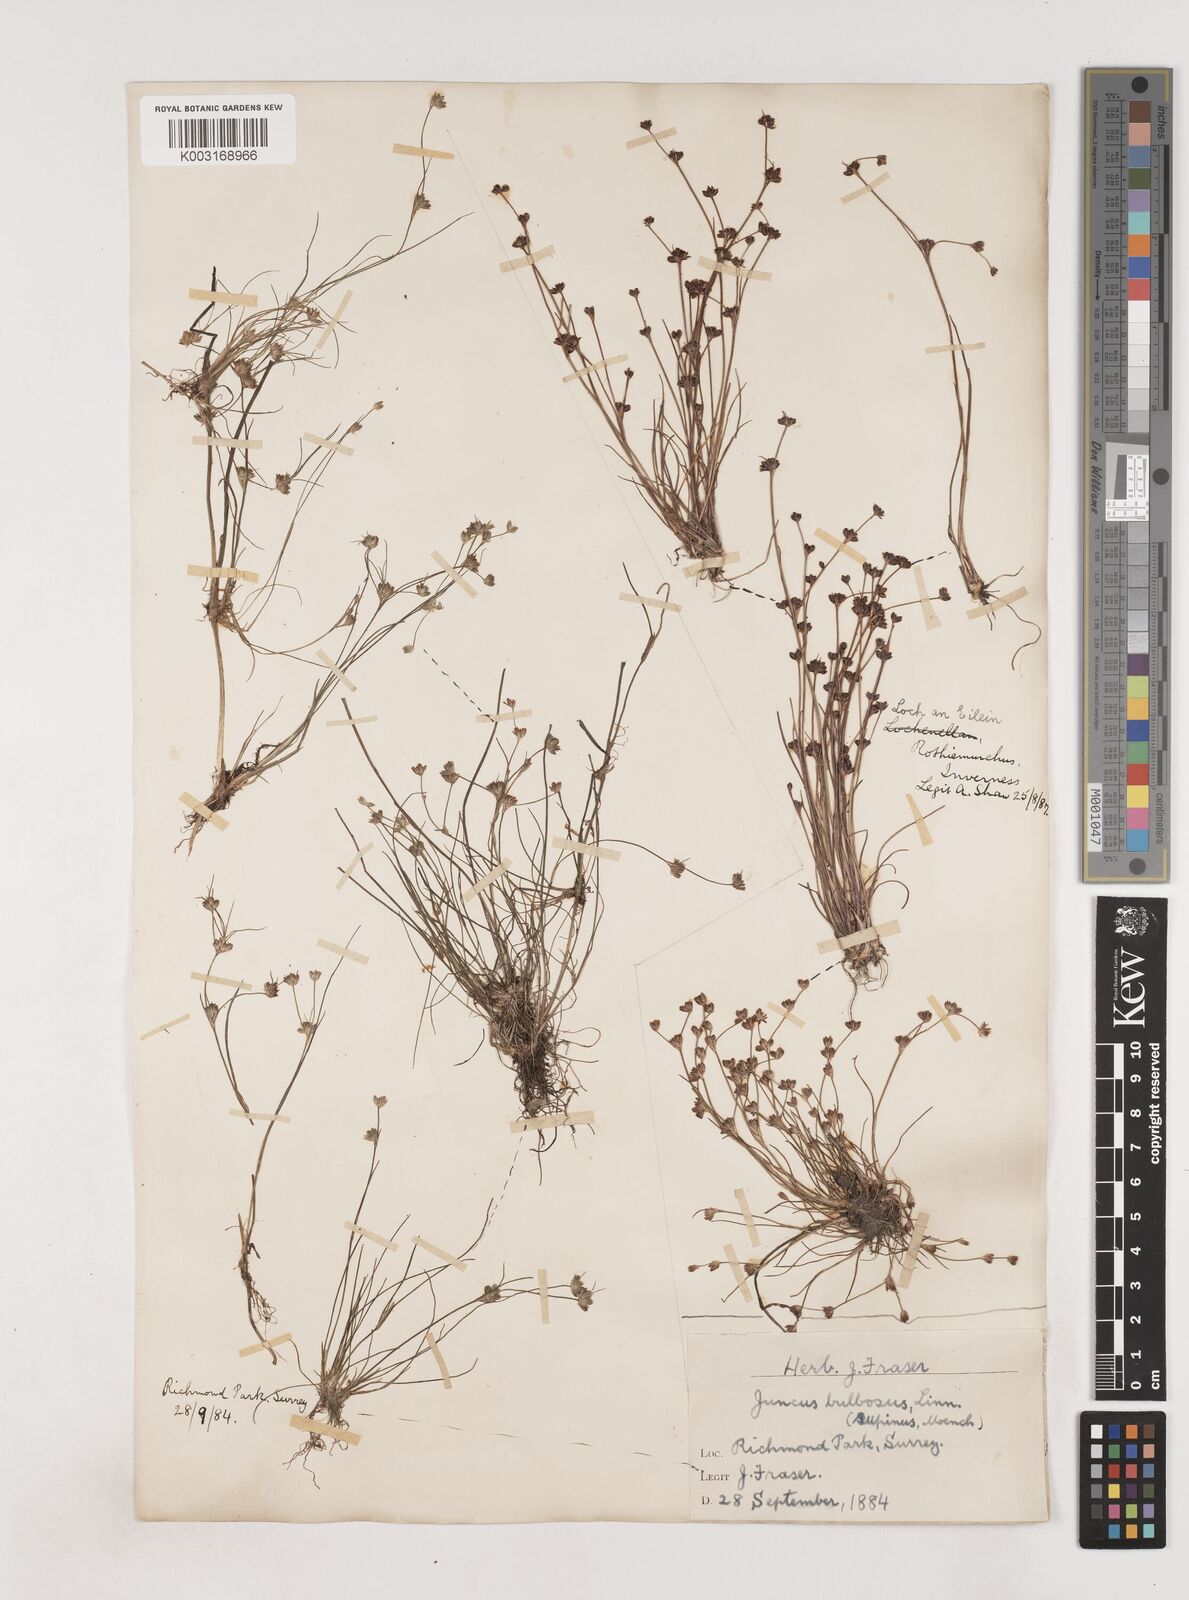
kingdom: Plantae
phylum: Tracheophyta
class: Liliopsida
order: Poales
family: Juncaceae
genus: Juncus
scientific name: Juncus bulbosus
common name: Bulbous rush
